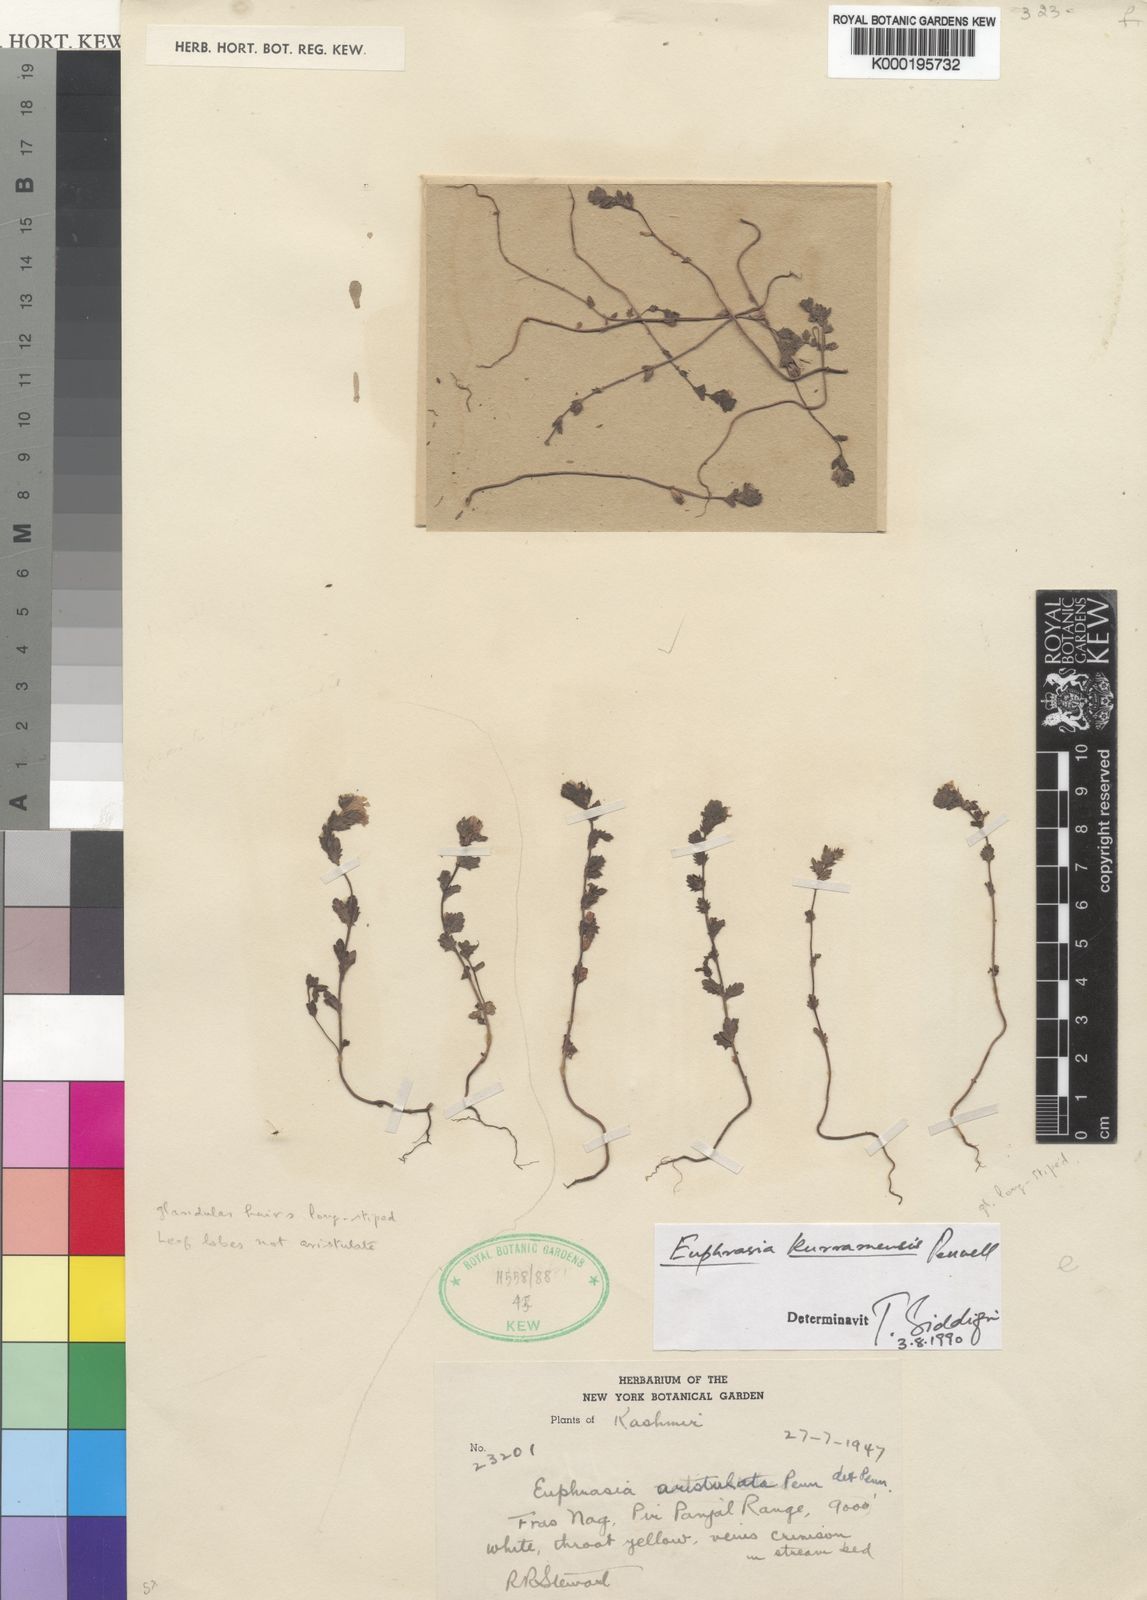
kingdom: Plantae
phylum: Tracheophyta
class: Magnoliopsida
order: Lamiales
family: Orobanchaceae
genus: Euphrasia
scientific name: Euphrasia himalayica
